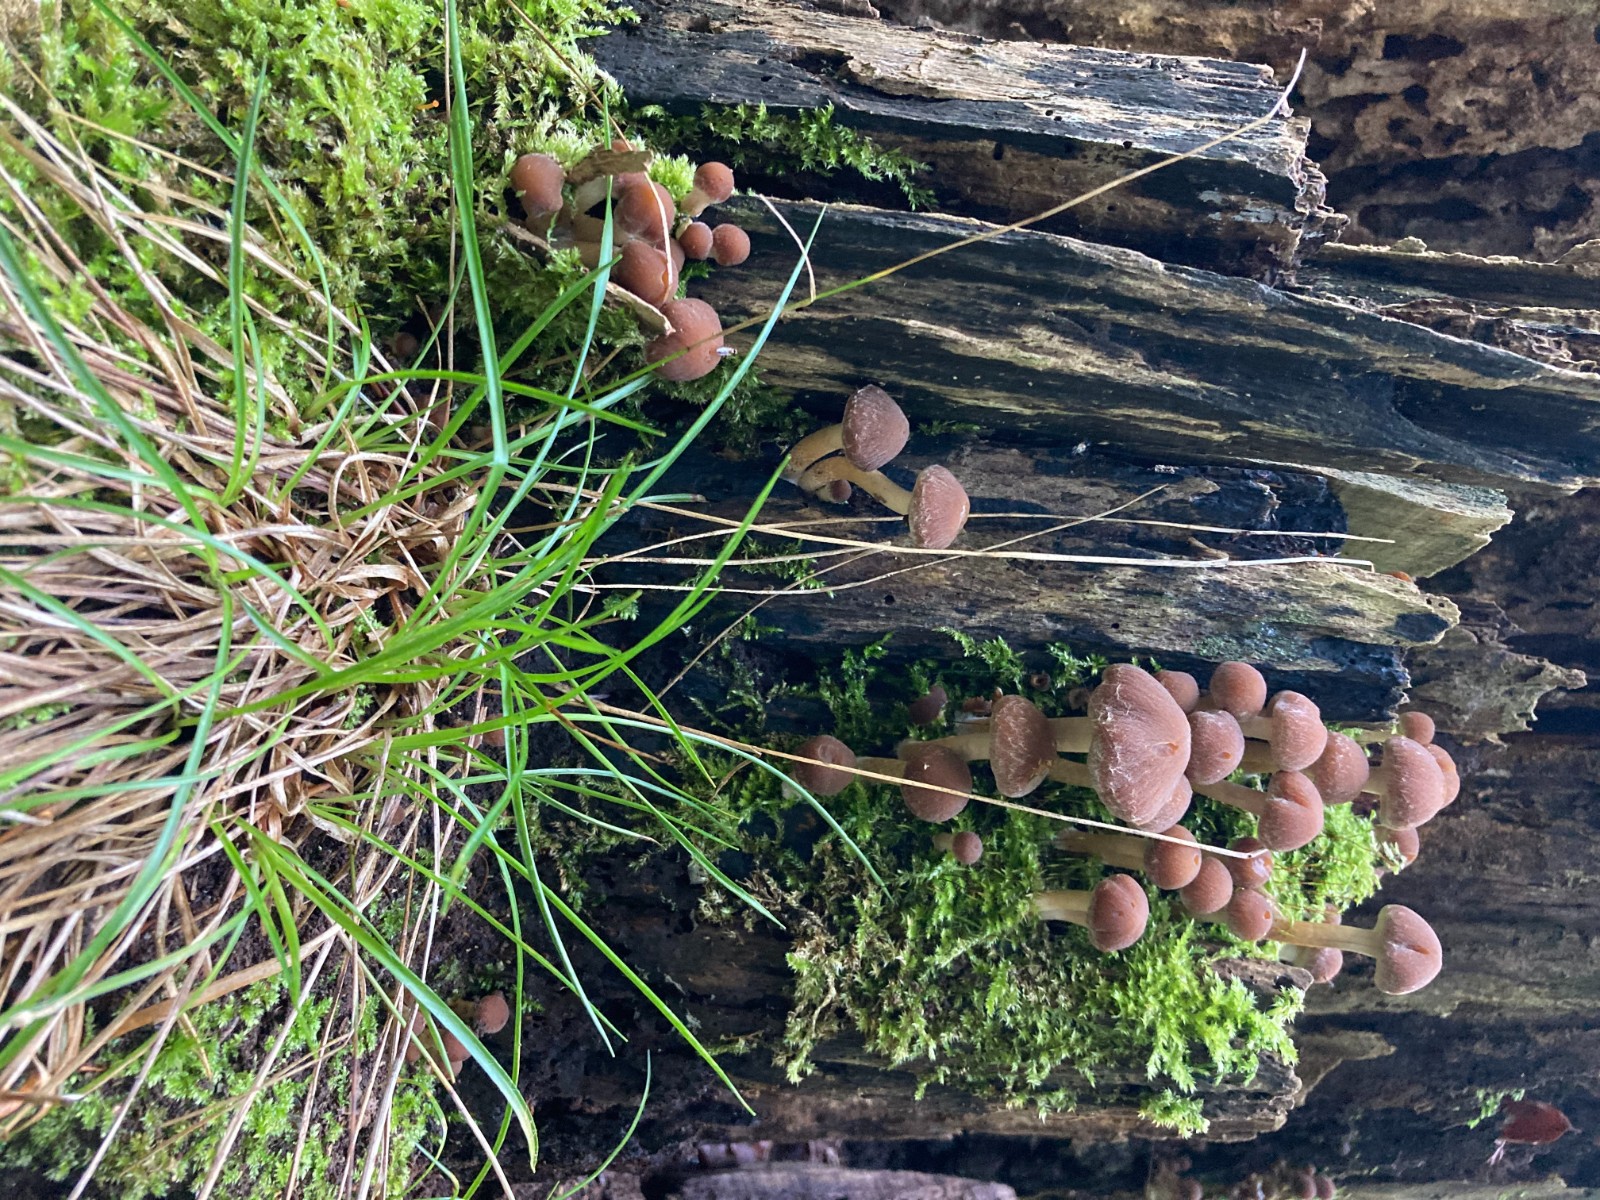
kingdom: Fungi
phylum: Basidiomycota
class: Agaricomycetes
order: Agaricales
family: Psathyrellaceae
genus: Psathyrella
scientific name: Psathyrella piluliformis
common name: lysstokket mørkhat
